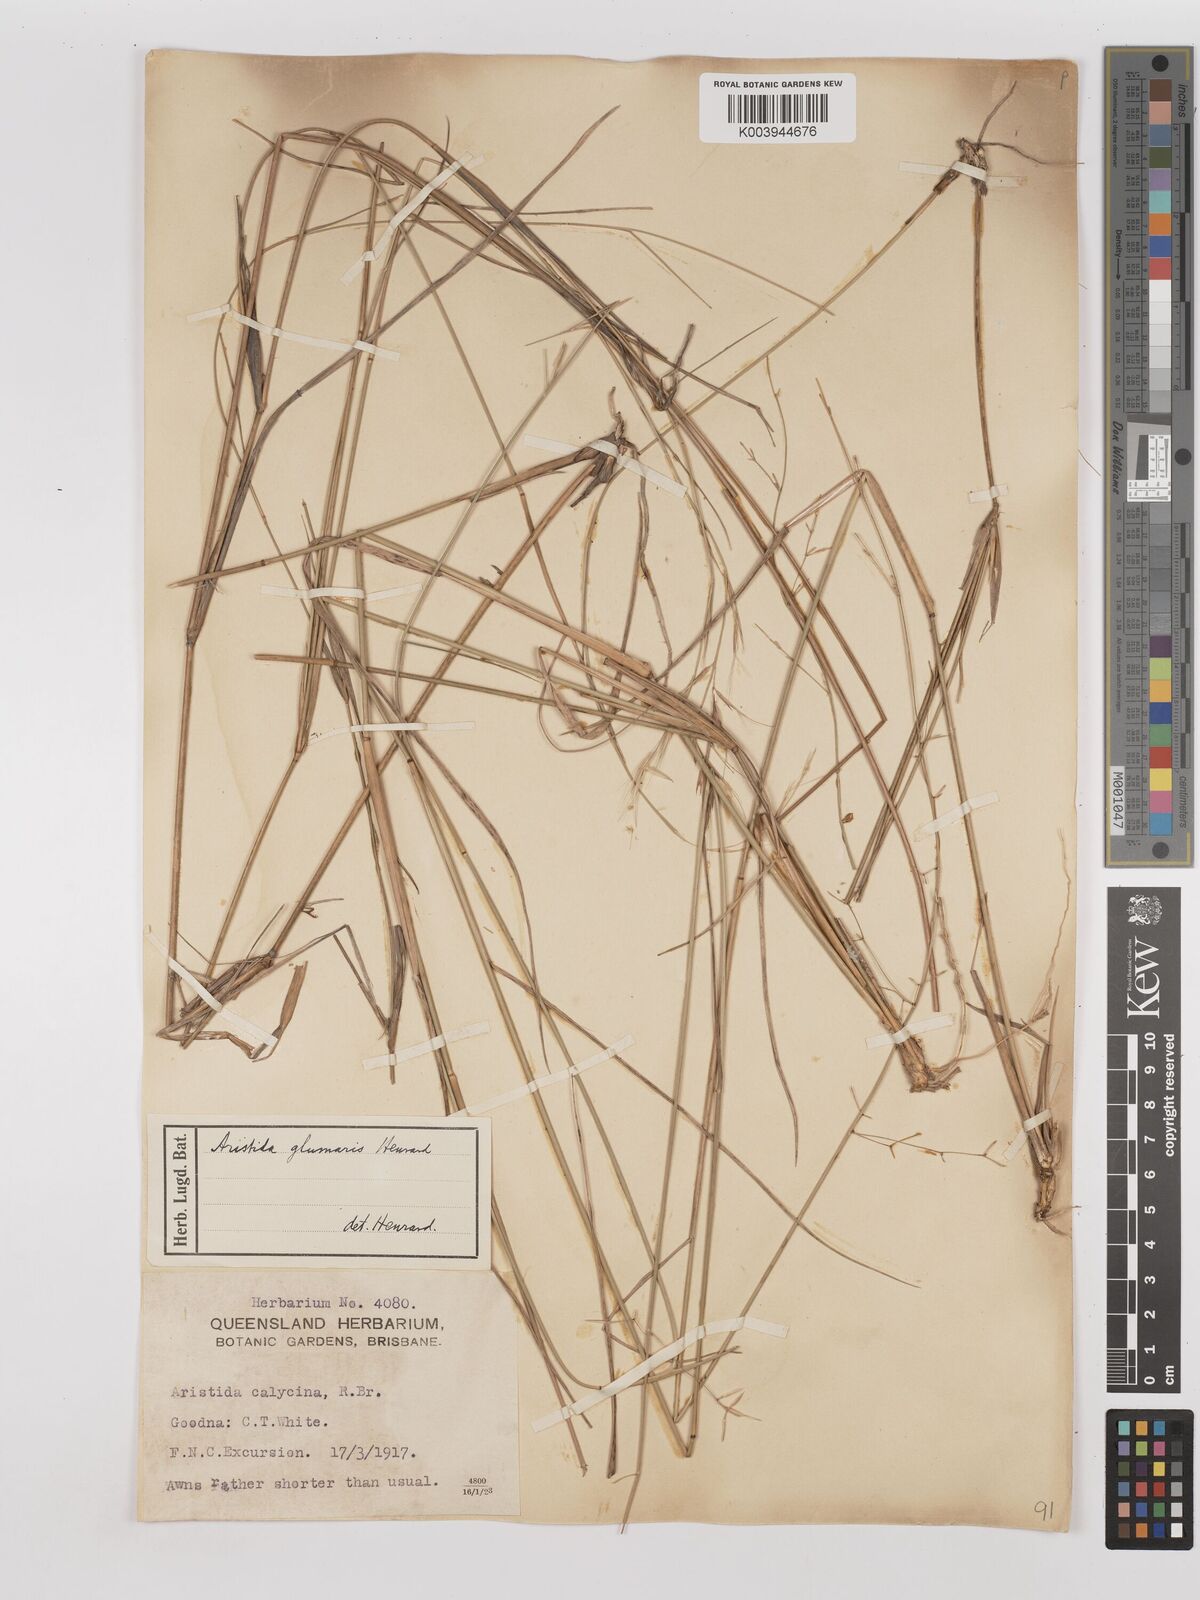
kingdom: Plantae
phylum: Tracheophyta
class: Liliopsida
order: Poales
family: Poaceae
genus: Aristida
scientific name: Aristida calycina
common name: Dark wire grass
